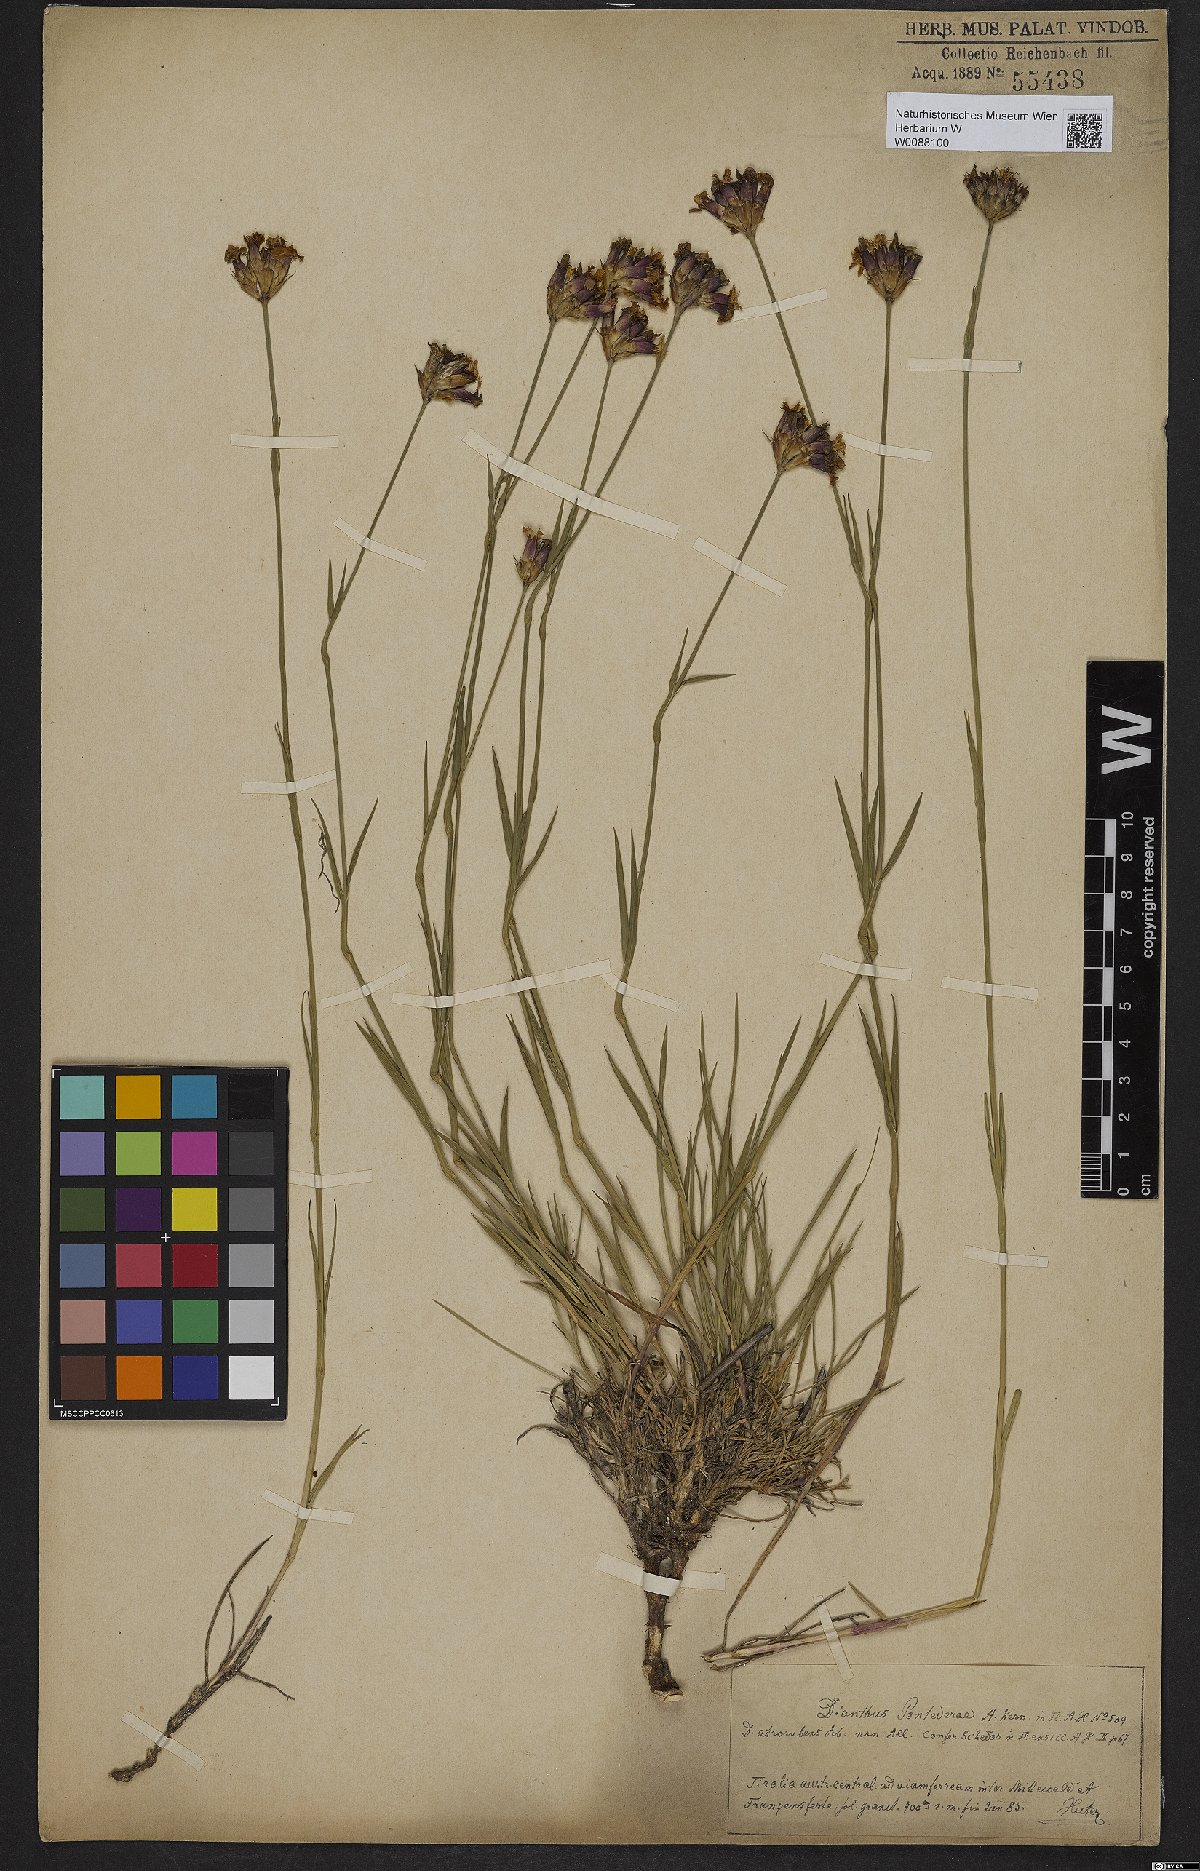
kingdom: Plantae
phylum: Tracheophyta
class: Magnoliopsida
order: Caryophyllales
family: Caryophyllaceae
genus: Dianthus
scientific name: Dianthus pontederae
